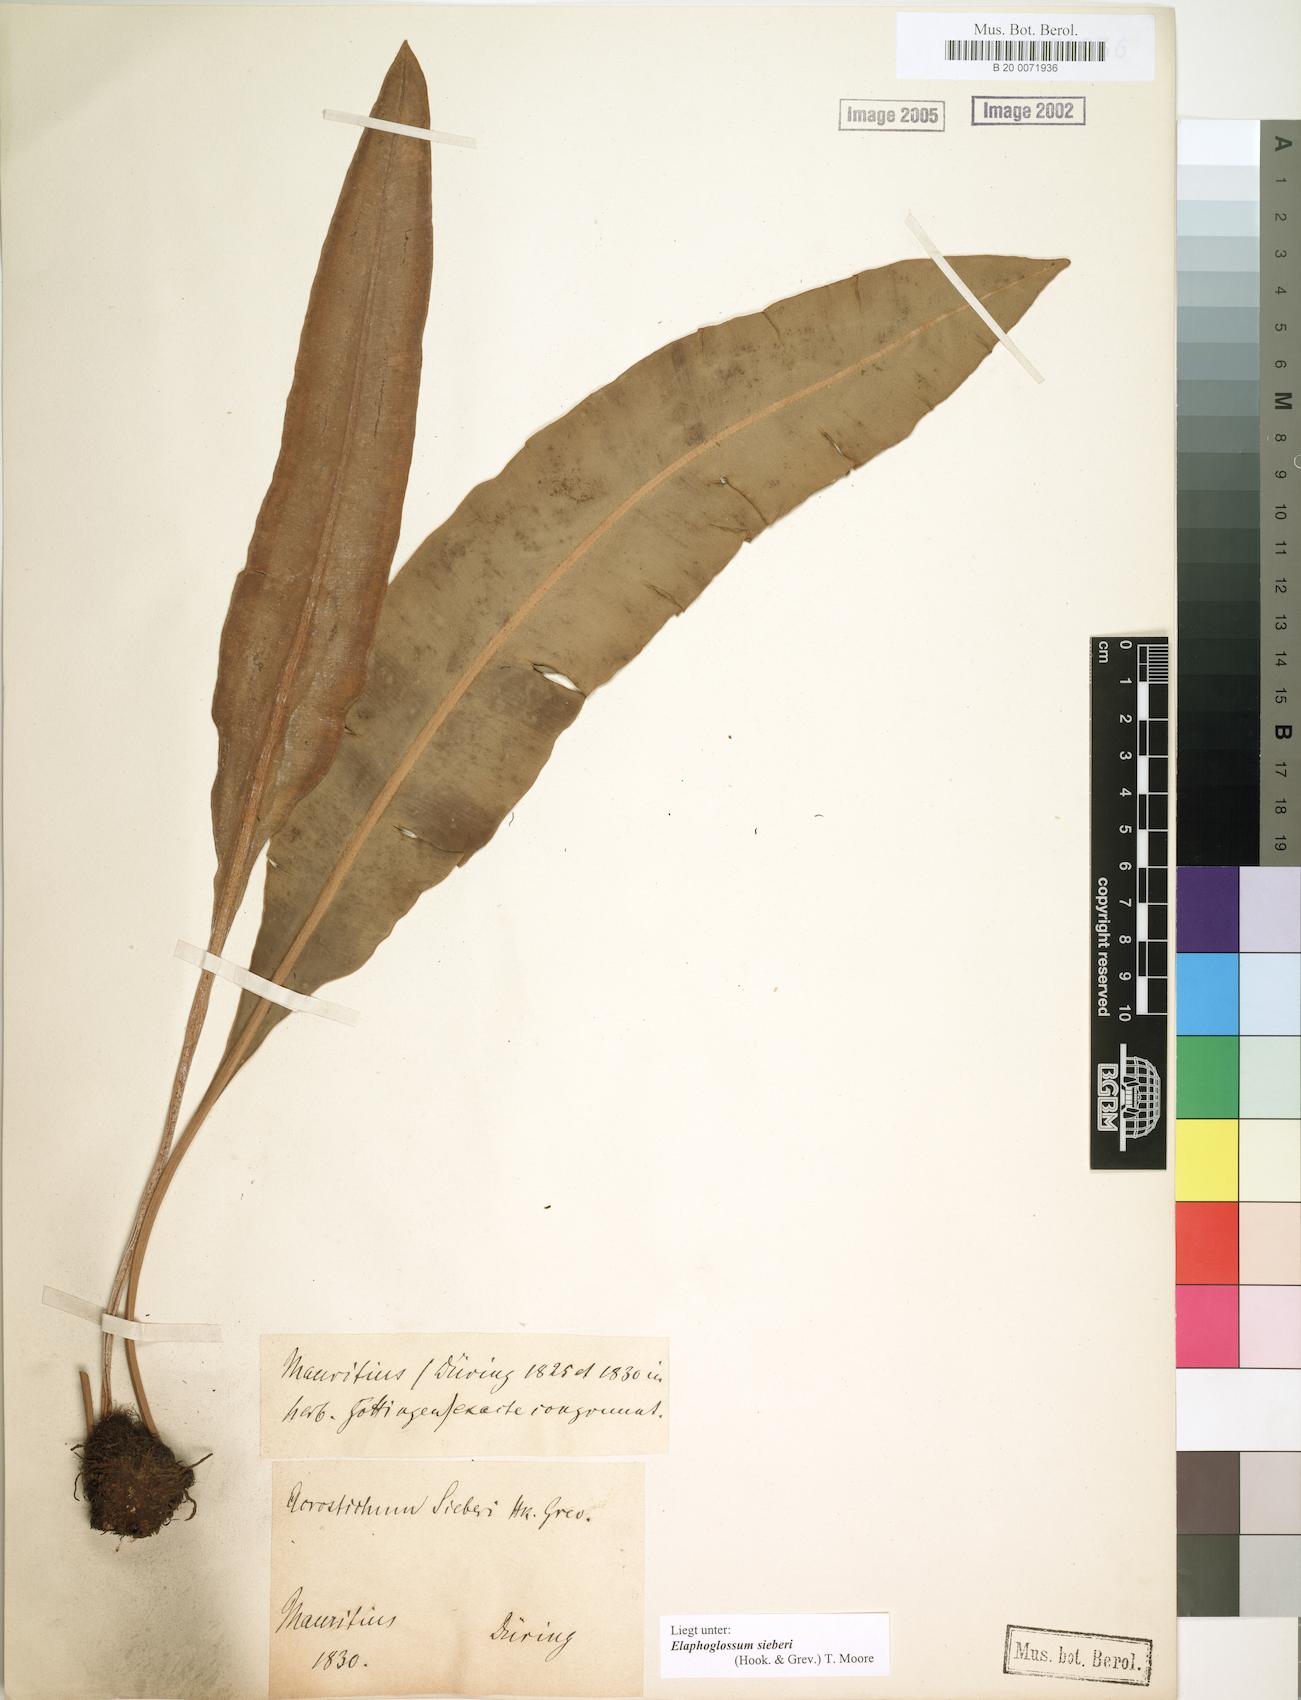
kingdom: Plantae
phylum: Tracheophyta
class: Polypodiopsida
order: Polypodiales
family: Dryopteridaceae
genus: Elaphoglossum
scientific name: Elaphoglossum sieberi
